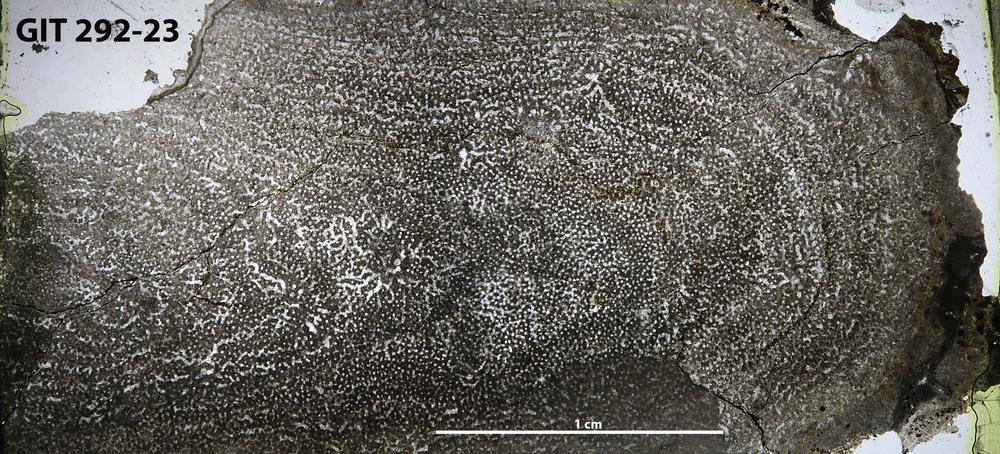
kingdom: Animalia
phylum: Porifera
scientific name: Porifera
